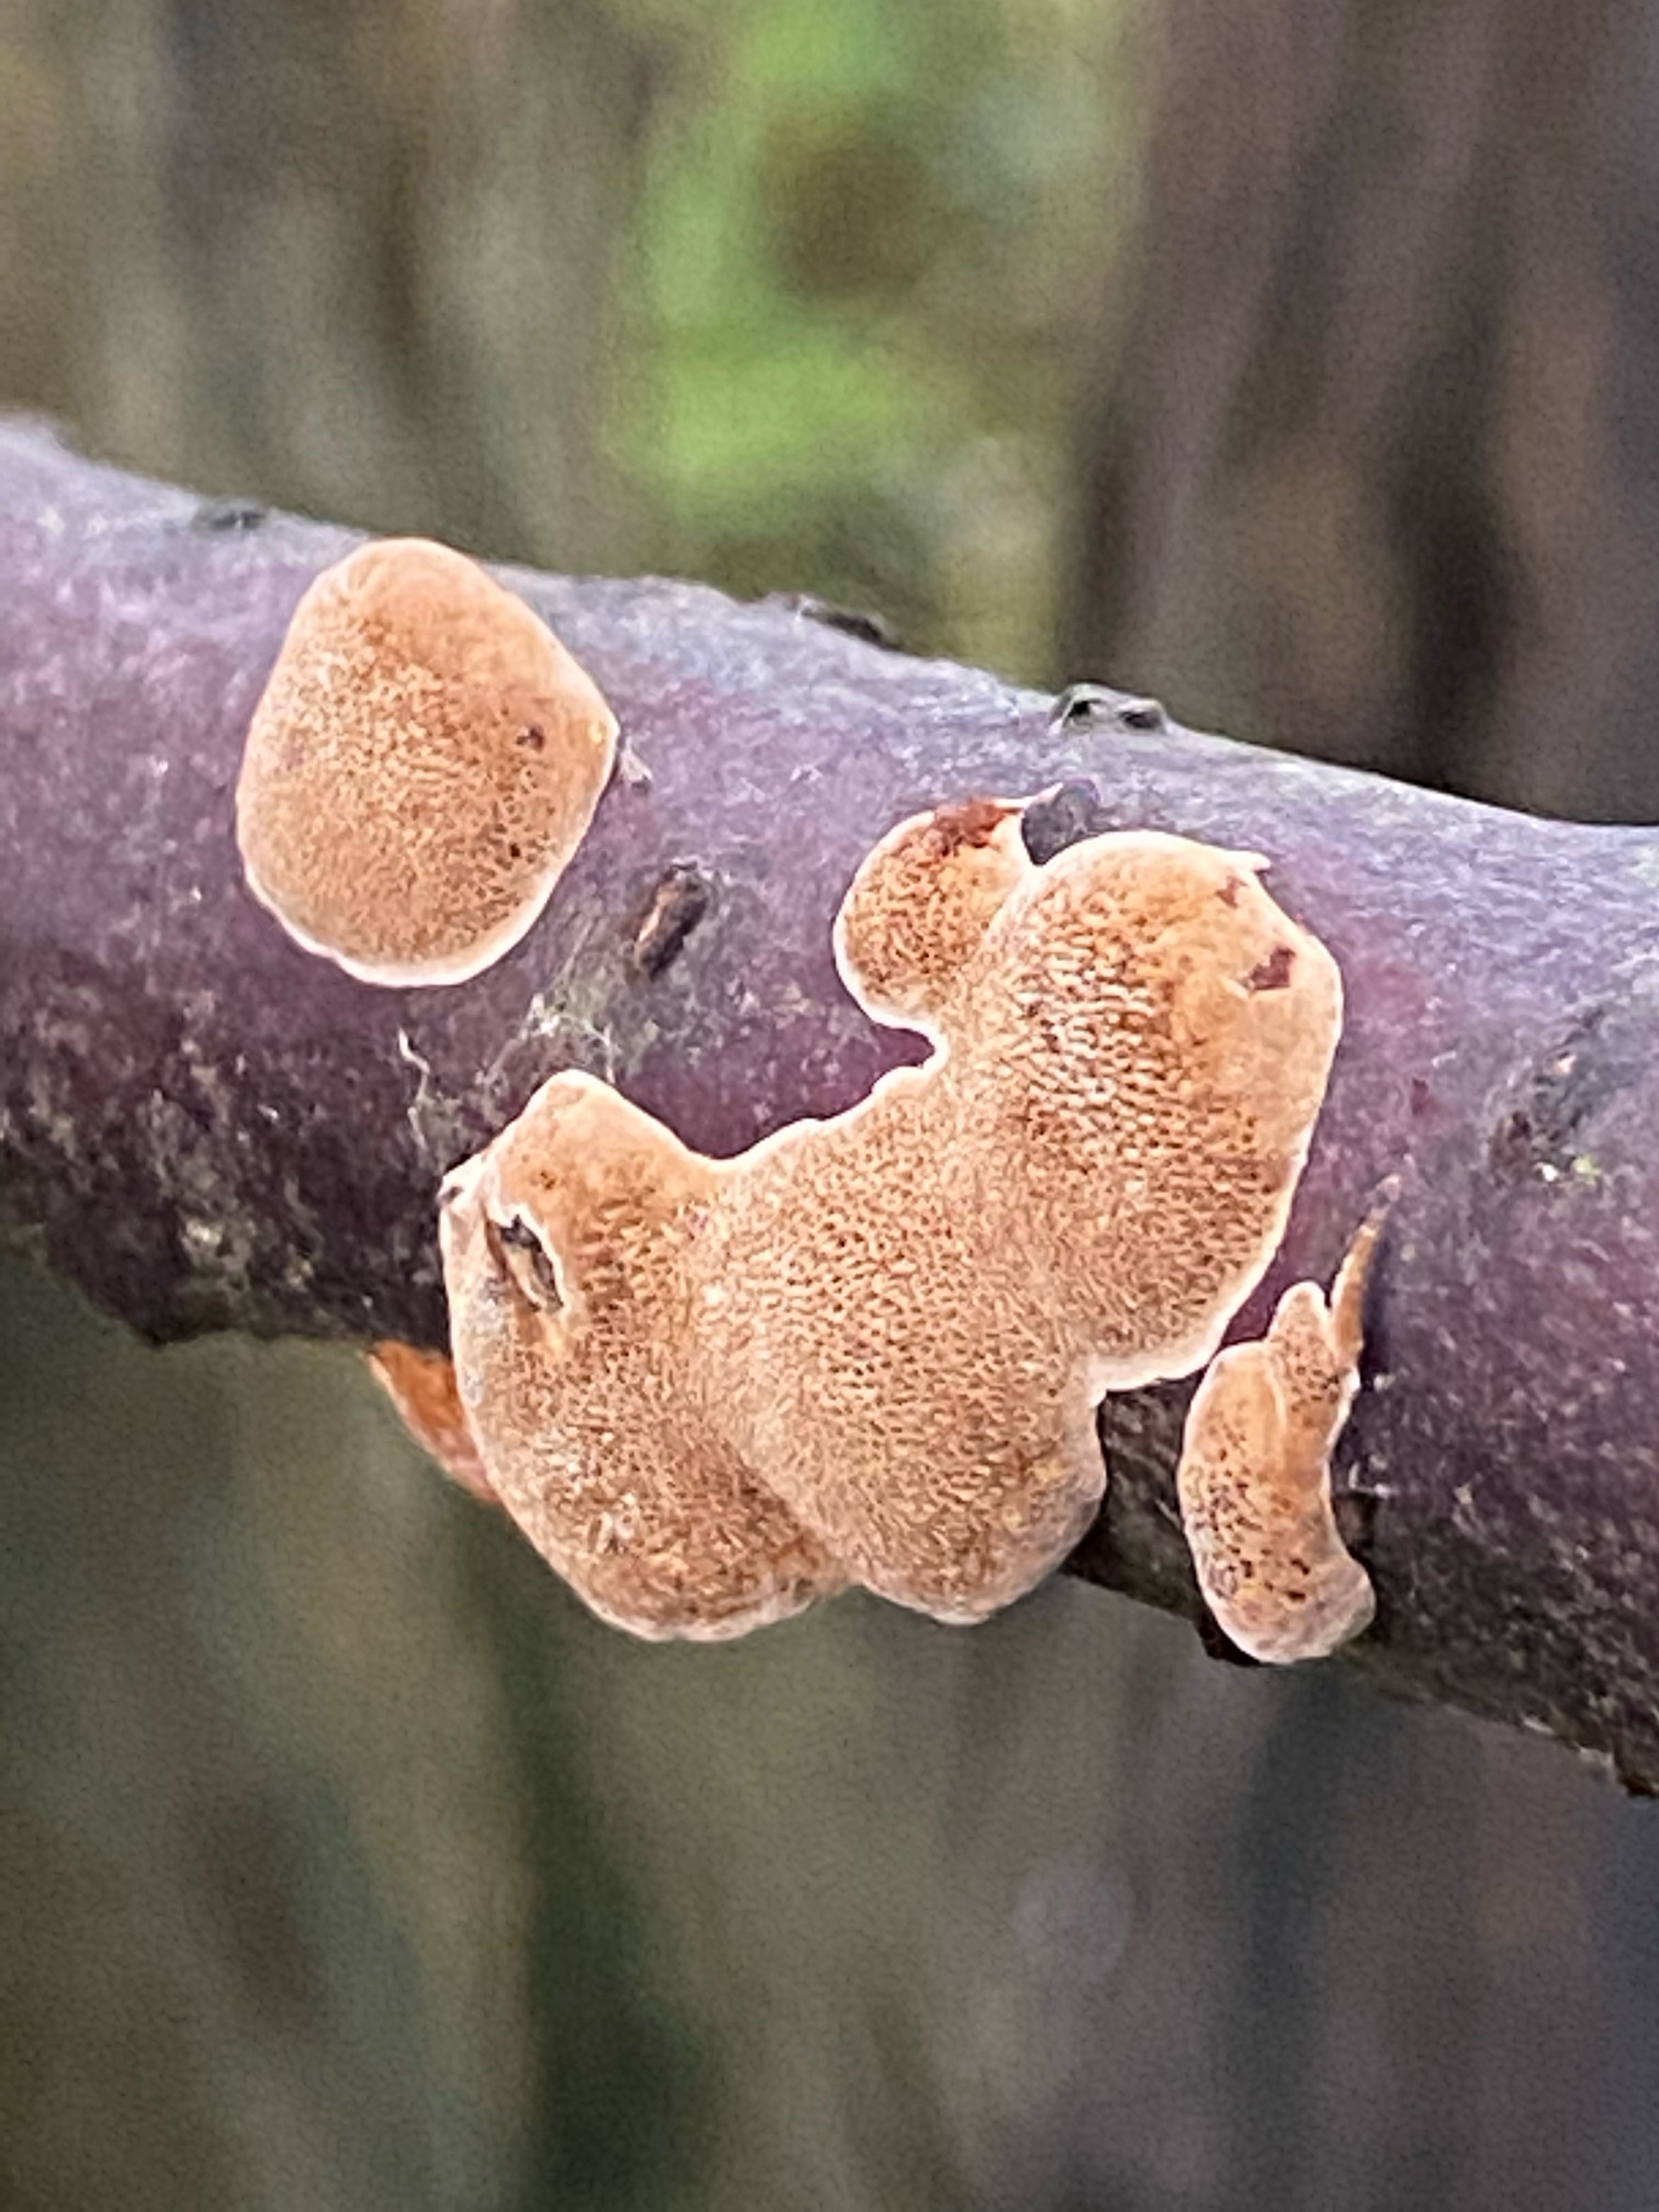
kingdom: Fungi
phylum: Basidiomycota
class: Agaricomycetes
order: Polyporales
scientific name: Polyporales
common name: poresvampordenen
